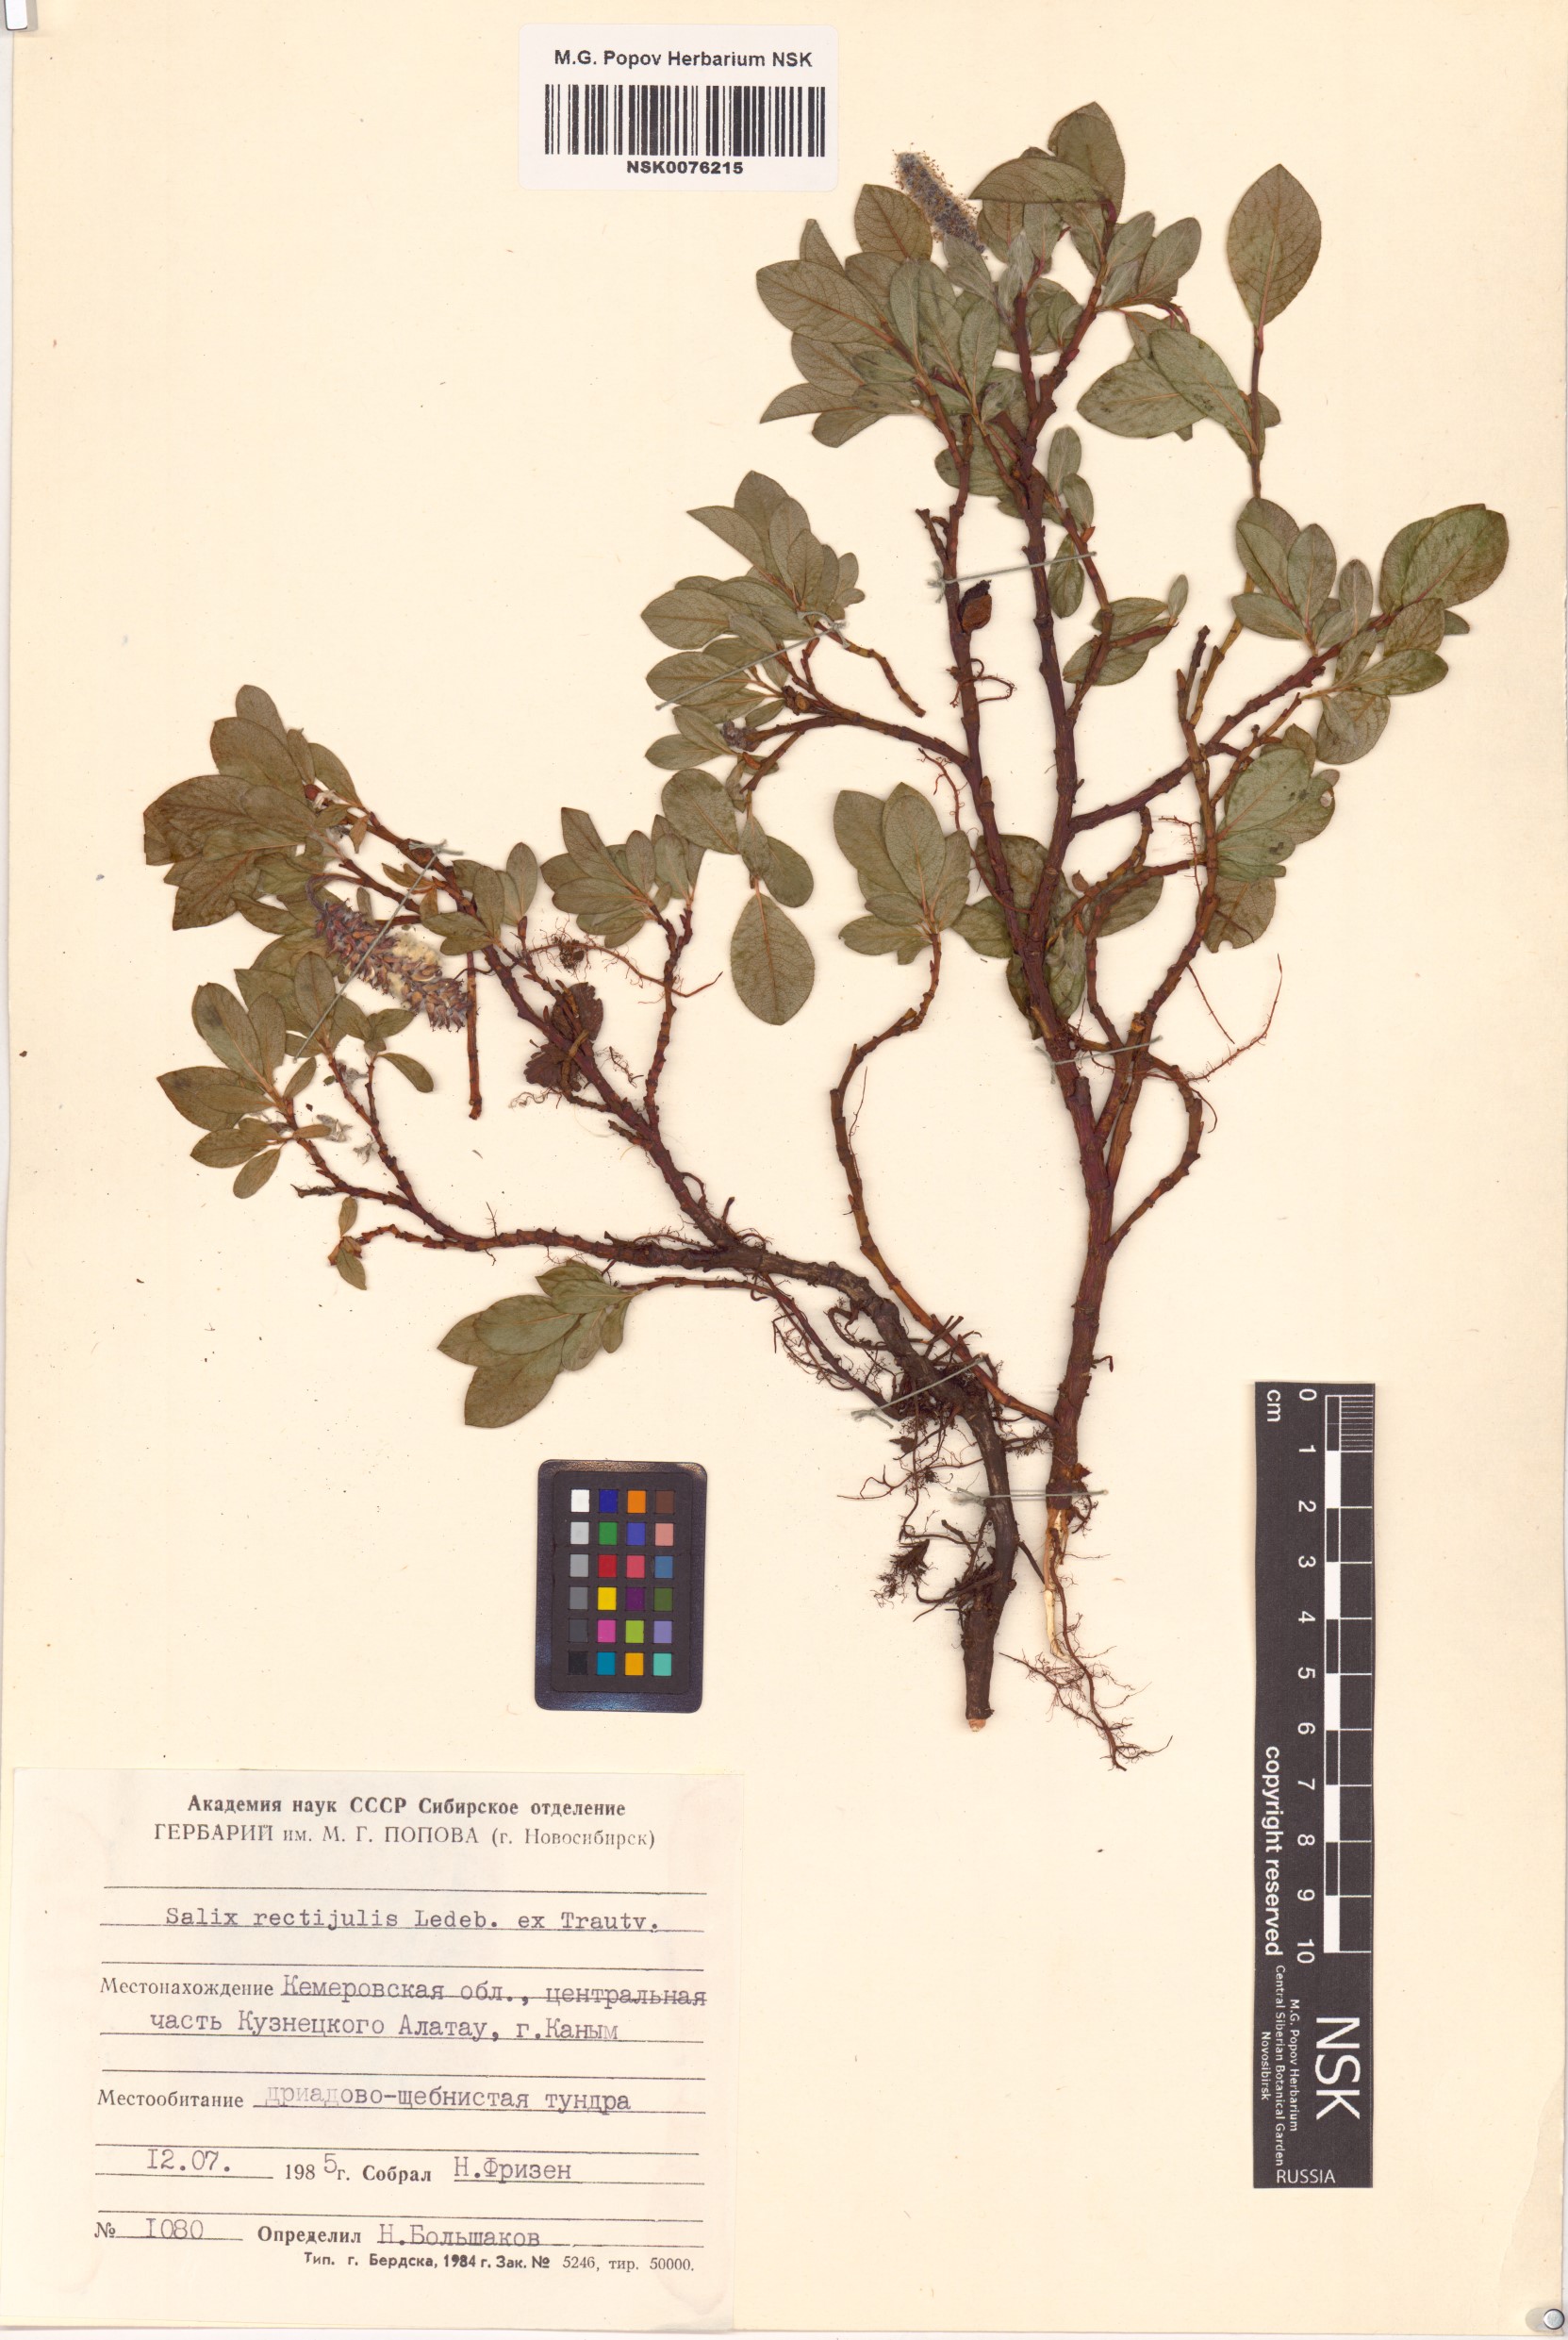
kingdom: Plantae
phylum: Tracheophyta
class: Magnoliopsida
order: Malpighiales
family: Salicaceae
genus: Salix
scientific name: Salix rectijulis
